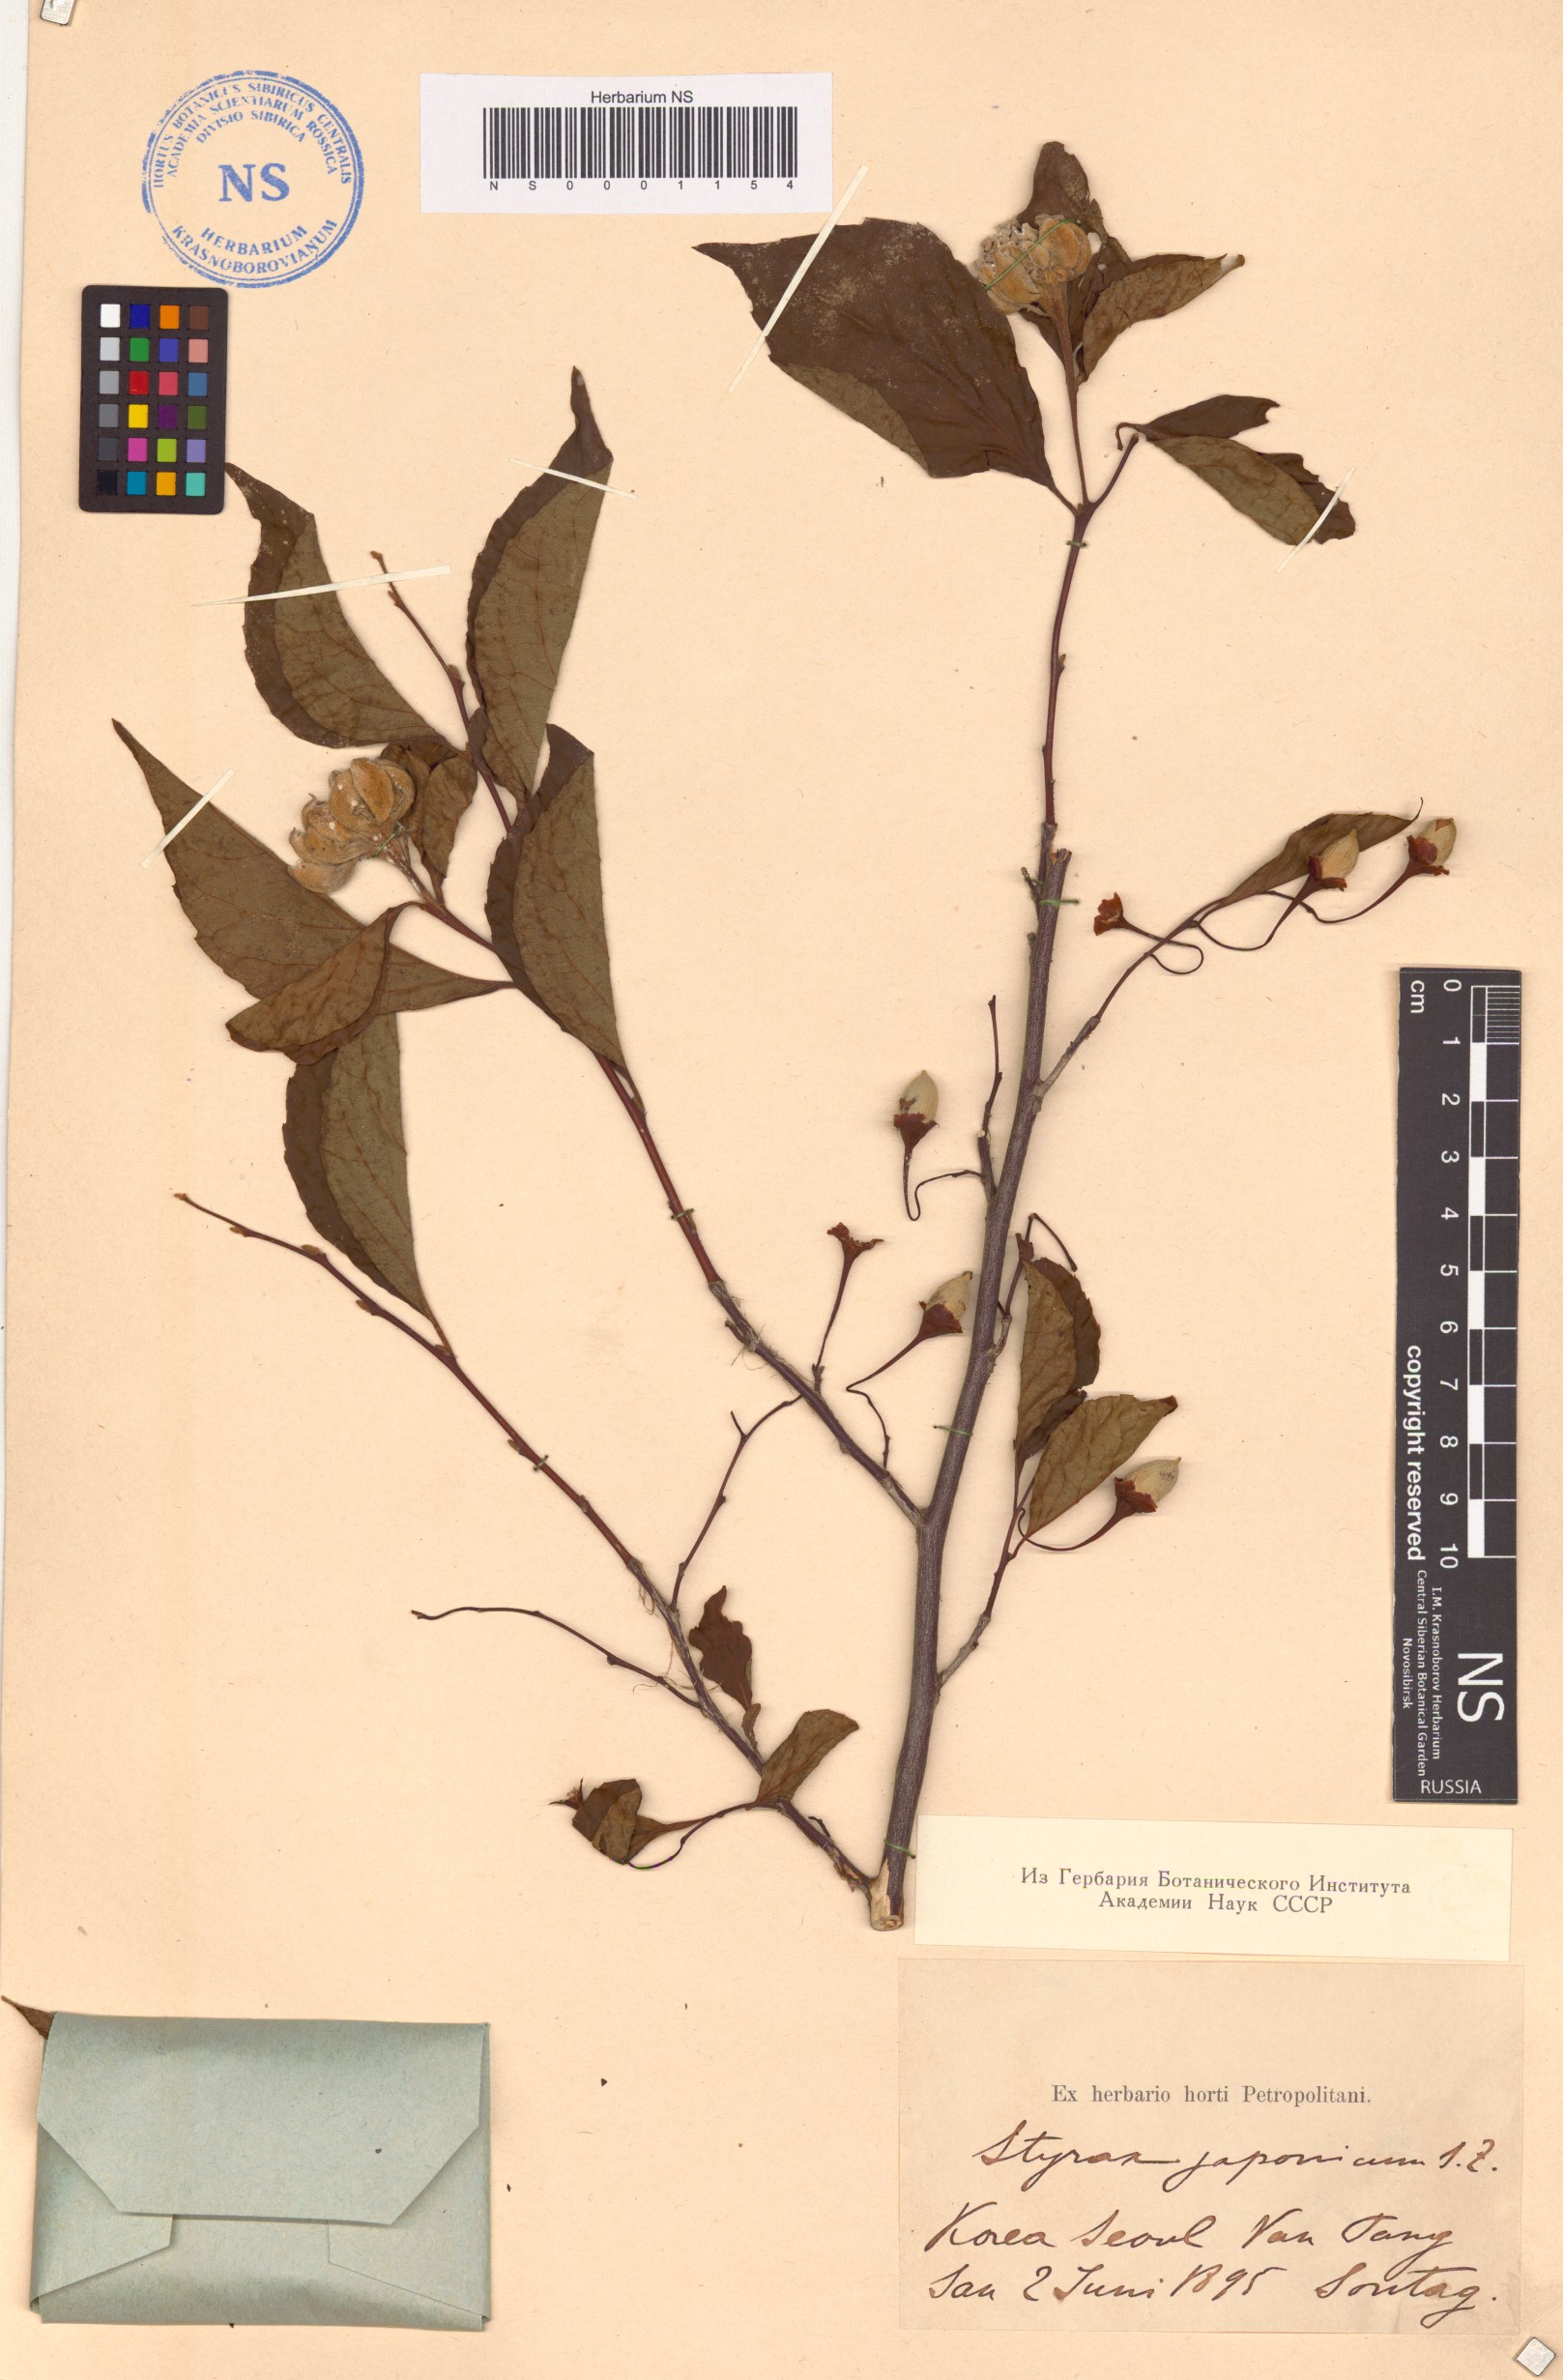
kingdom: Plantae
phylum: Tracheophyta
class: Magnoliopsida
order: Ericales
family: Styracaceae
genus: Styrax
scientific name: Styrax japonicus
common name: Japanese snowbell
